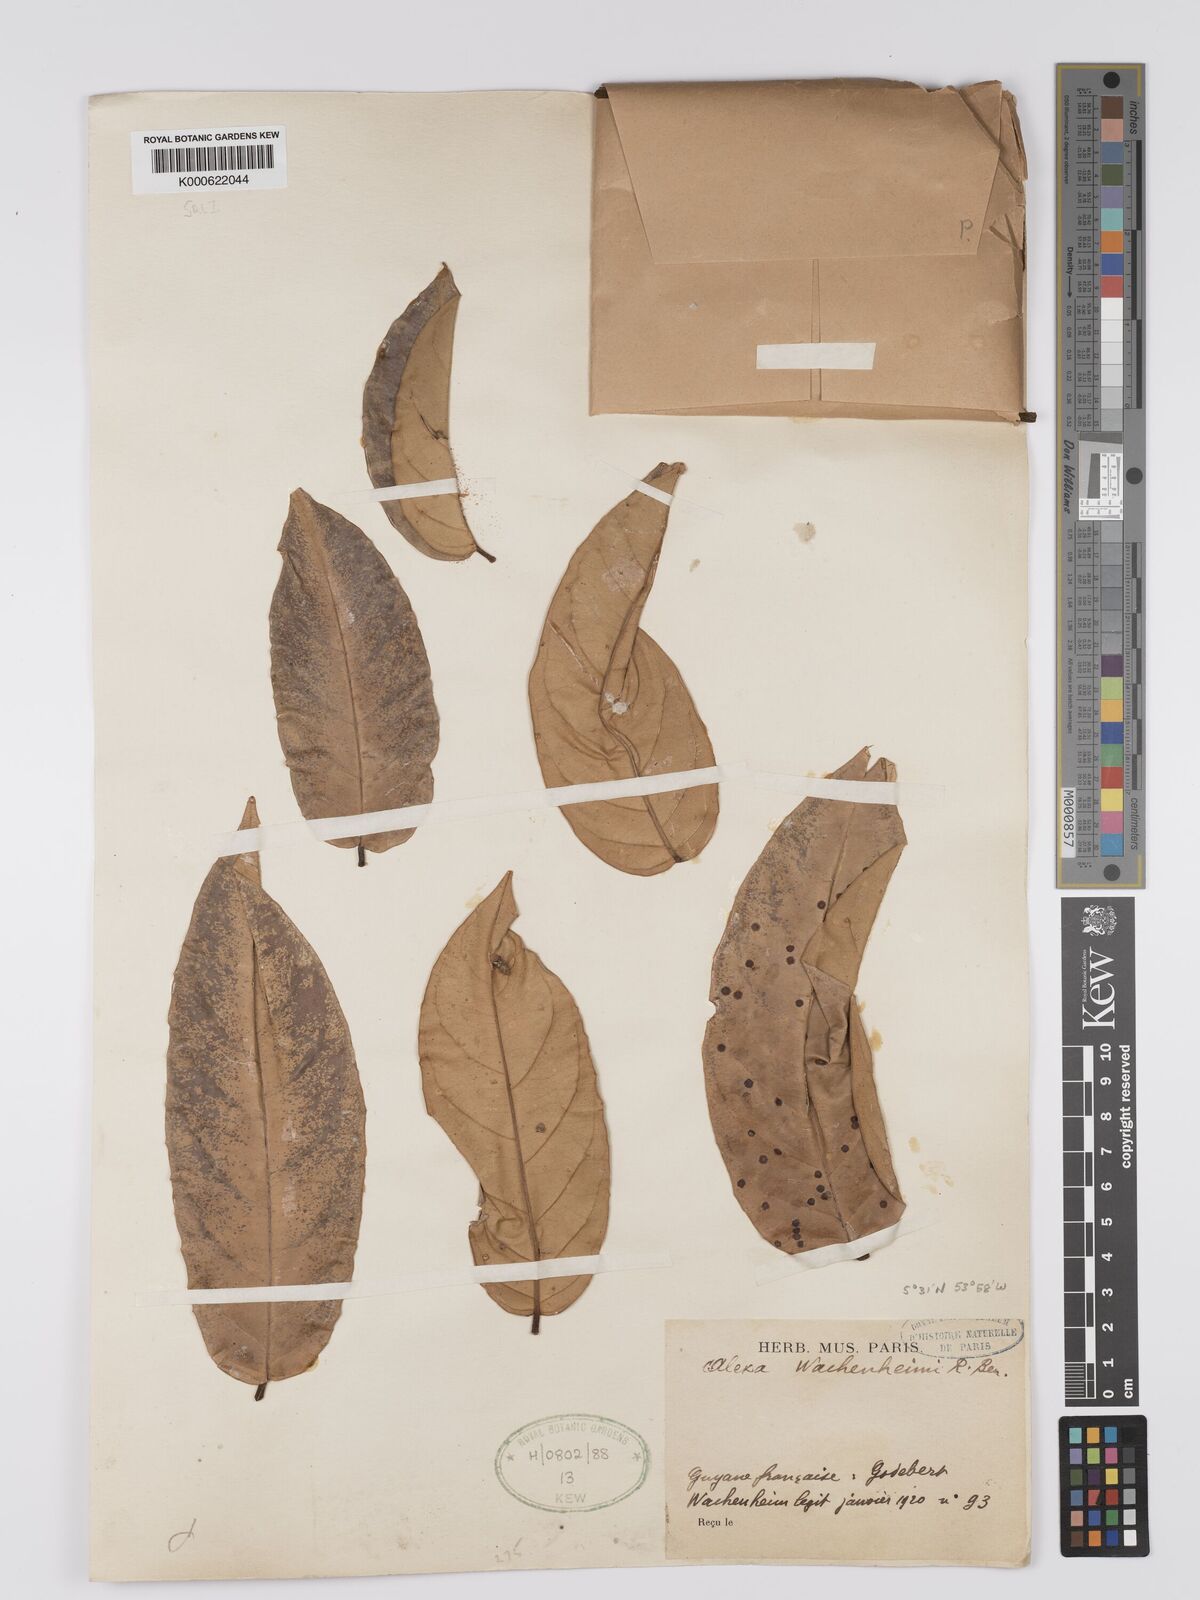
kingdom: Plantae
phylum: Tracheophyta
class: Magnoliopsida
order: Fabales
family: Fabaceae
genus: Alexa
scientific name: Alexa wachenheimii
